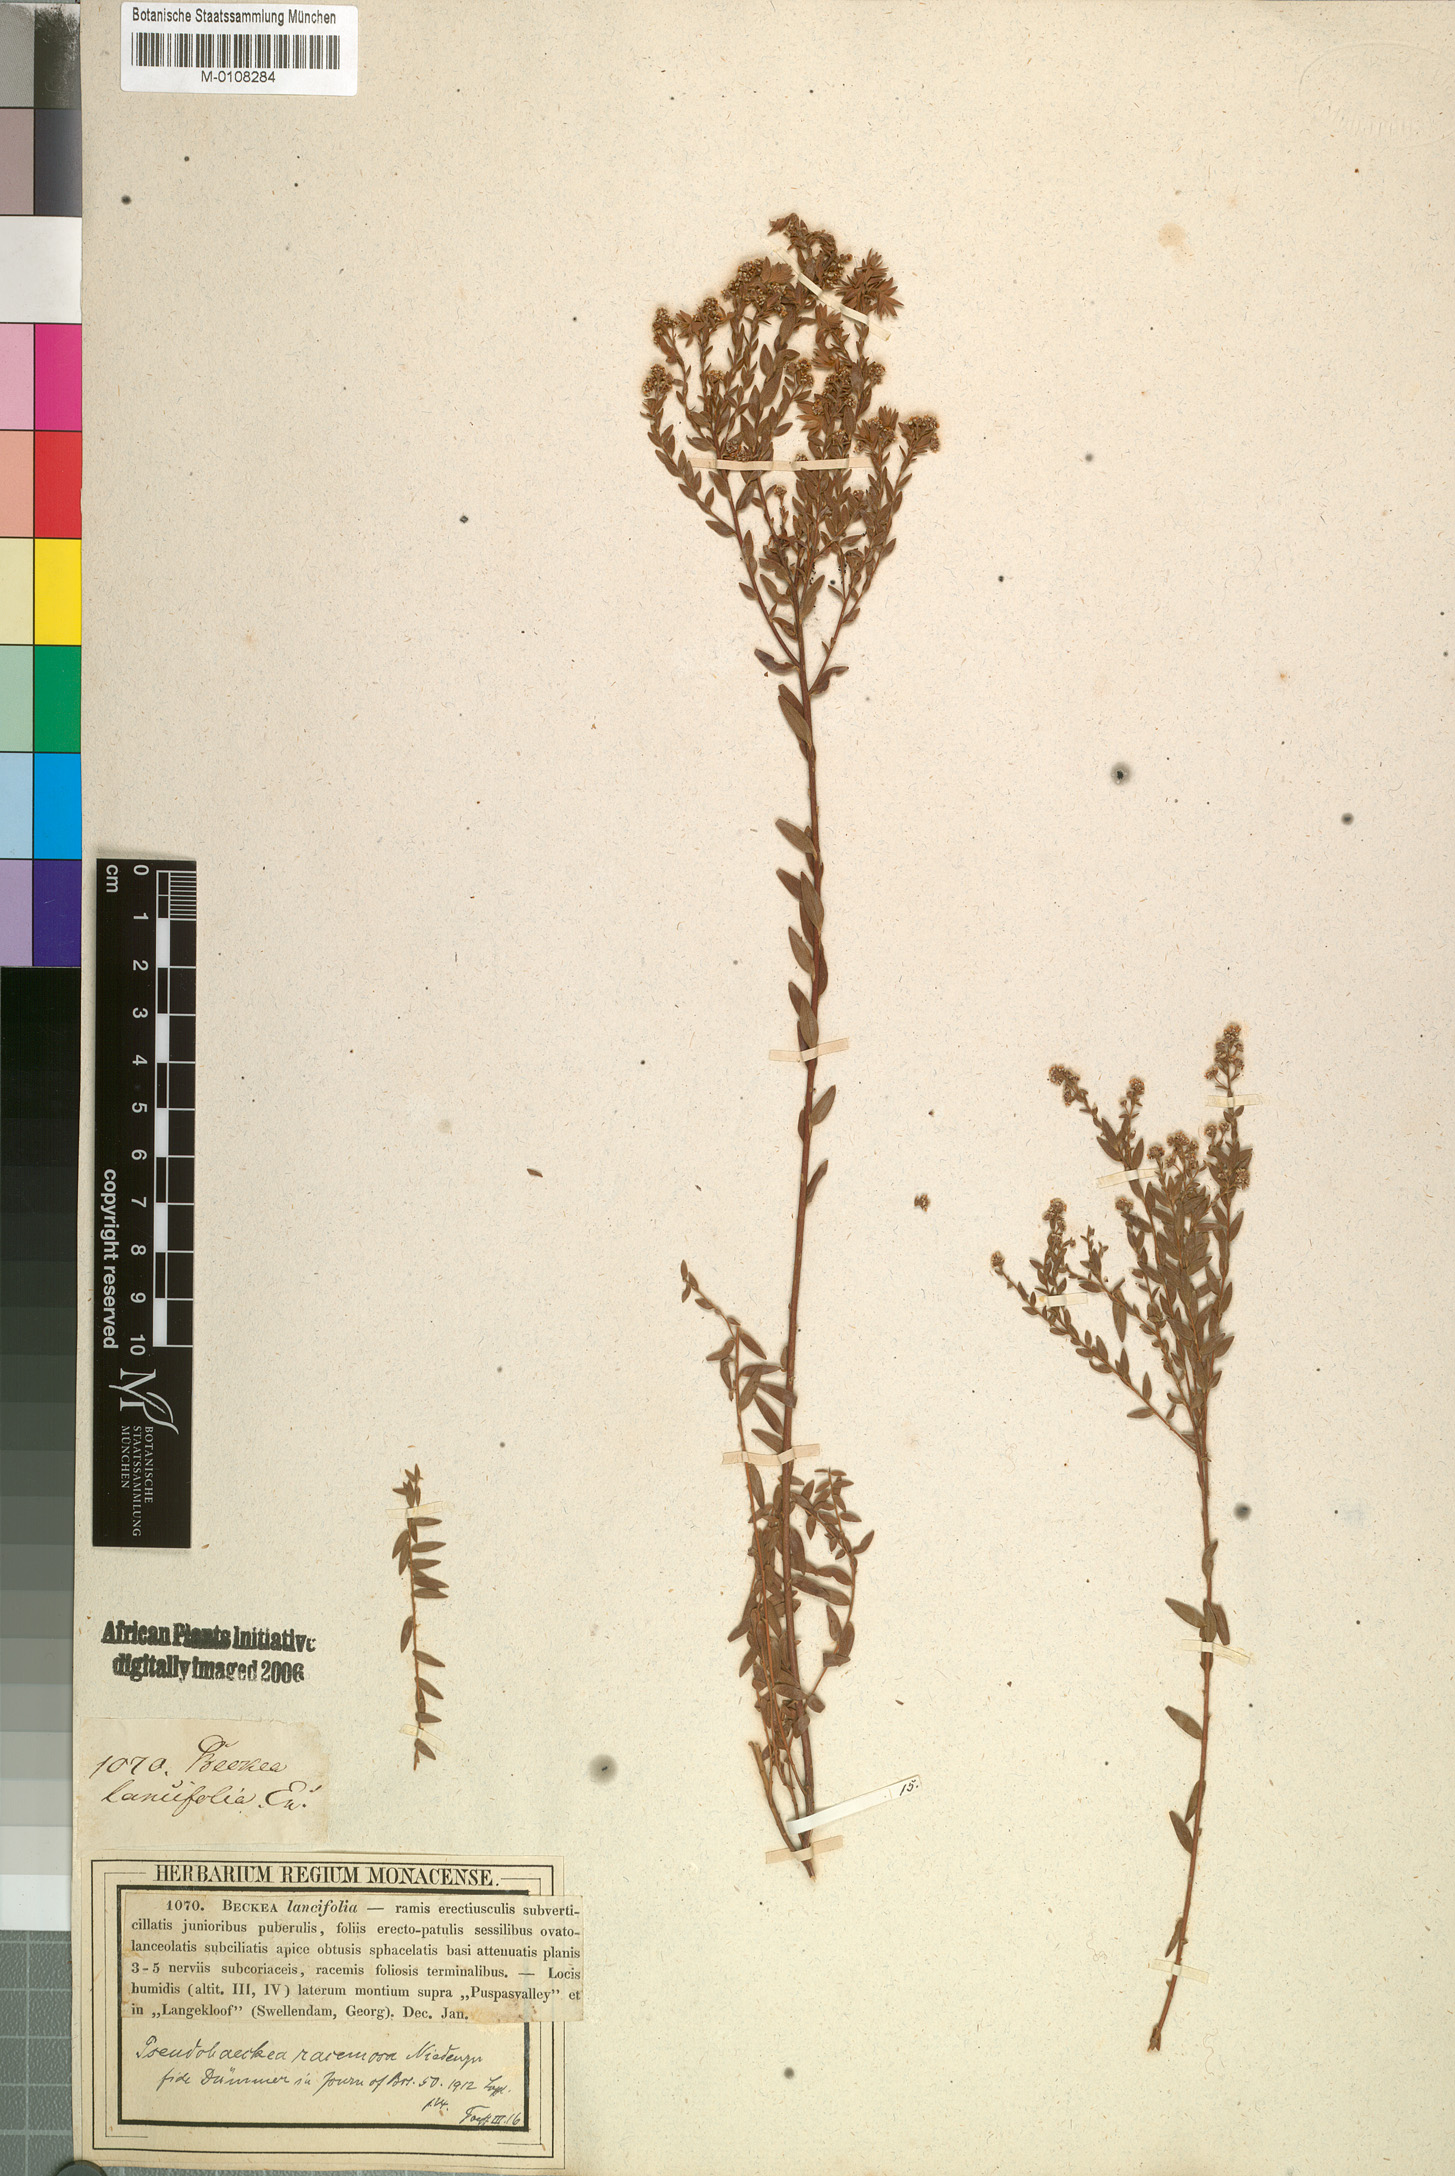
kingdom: Plantae
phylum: Tracheophyta
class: Magnoliopsida
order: Bruniales
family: Bruniaceae
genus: Brunia
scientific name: Brunia cordata
